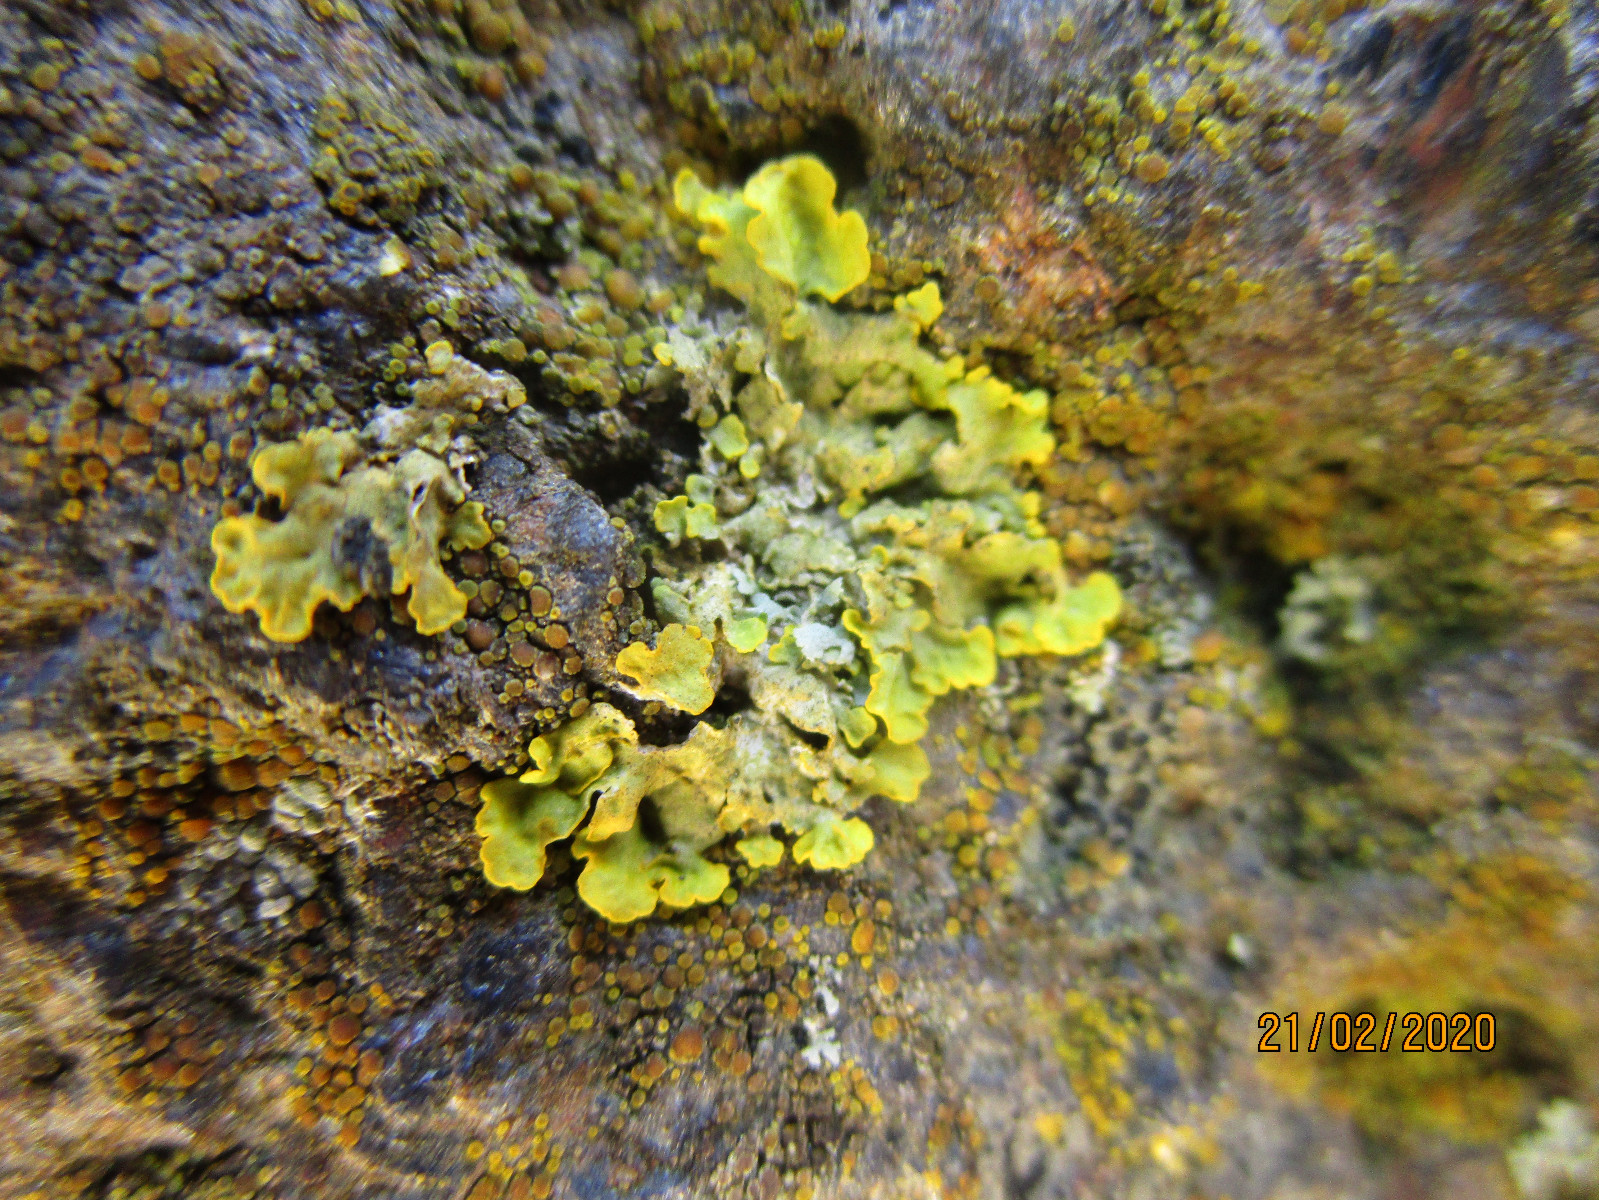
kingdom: Fungi
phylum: Ascomycota
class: Lecanoromycetes
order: Teloschistales
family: Teloschistaceae
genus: Xanthoria
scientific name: Xanthoria parietina
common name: almindelig væggelav
